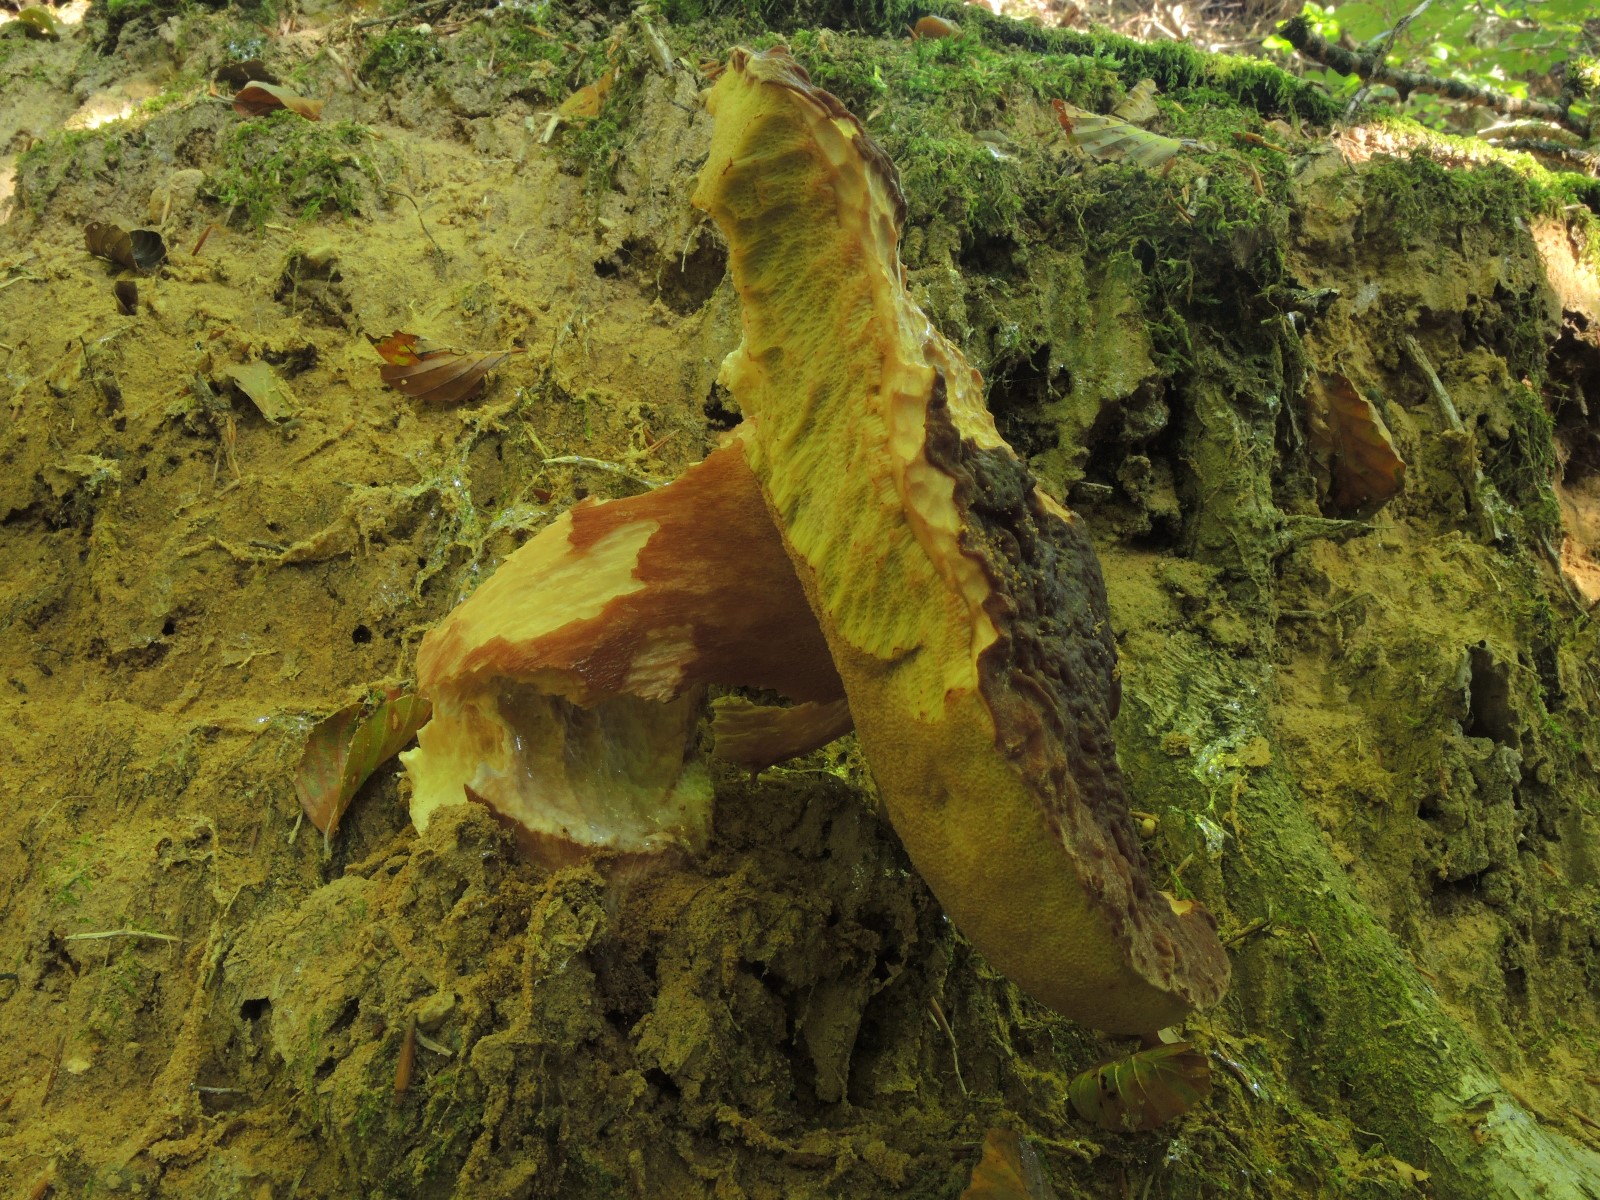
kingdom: Fungi
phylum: Basidiomycota
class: Agaricomycetes
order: Boletales
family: Boletaceae
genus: Boletus
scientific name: Boletus pinophilus
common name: rødbrun rørhat
